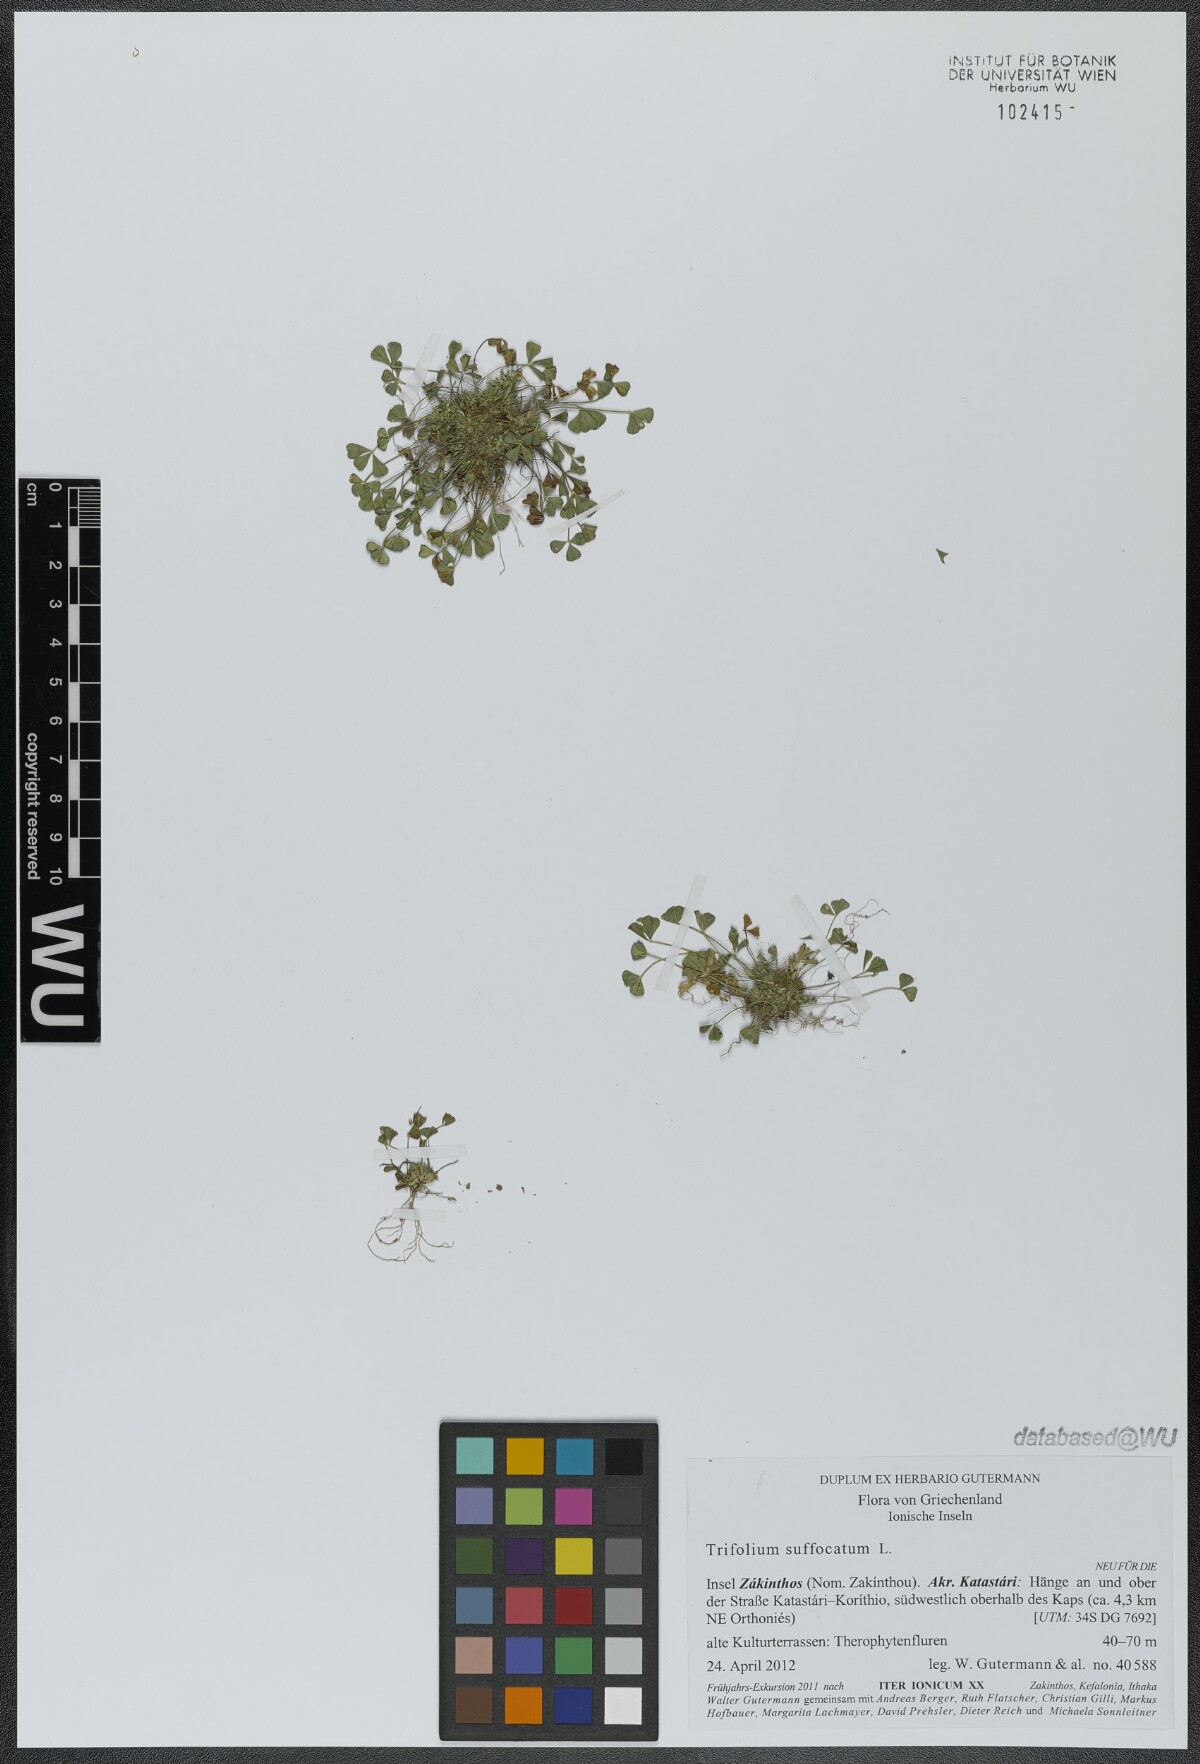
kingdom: Plantae
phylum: Tracheophyta
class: Magnoliopsida
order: Fabales
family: Fabaceae
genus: Trifolium
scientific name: Trifolium suffocatum
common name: Suffocated clover
